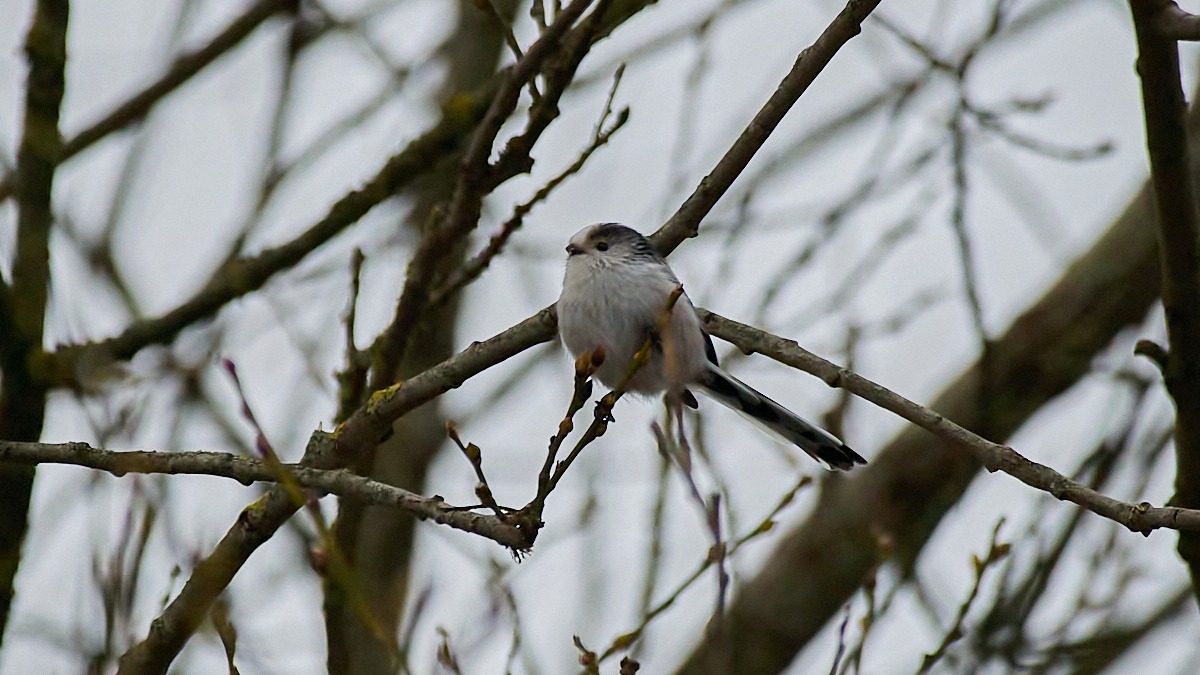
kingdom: Animalia
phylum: Chordata
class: Aves
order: Passeriformes
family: Aegithalidae
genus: Aegithalos
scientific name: Aegithalos caudatus
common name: Halemejse
